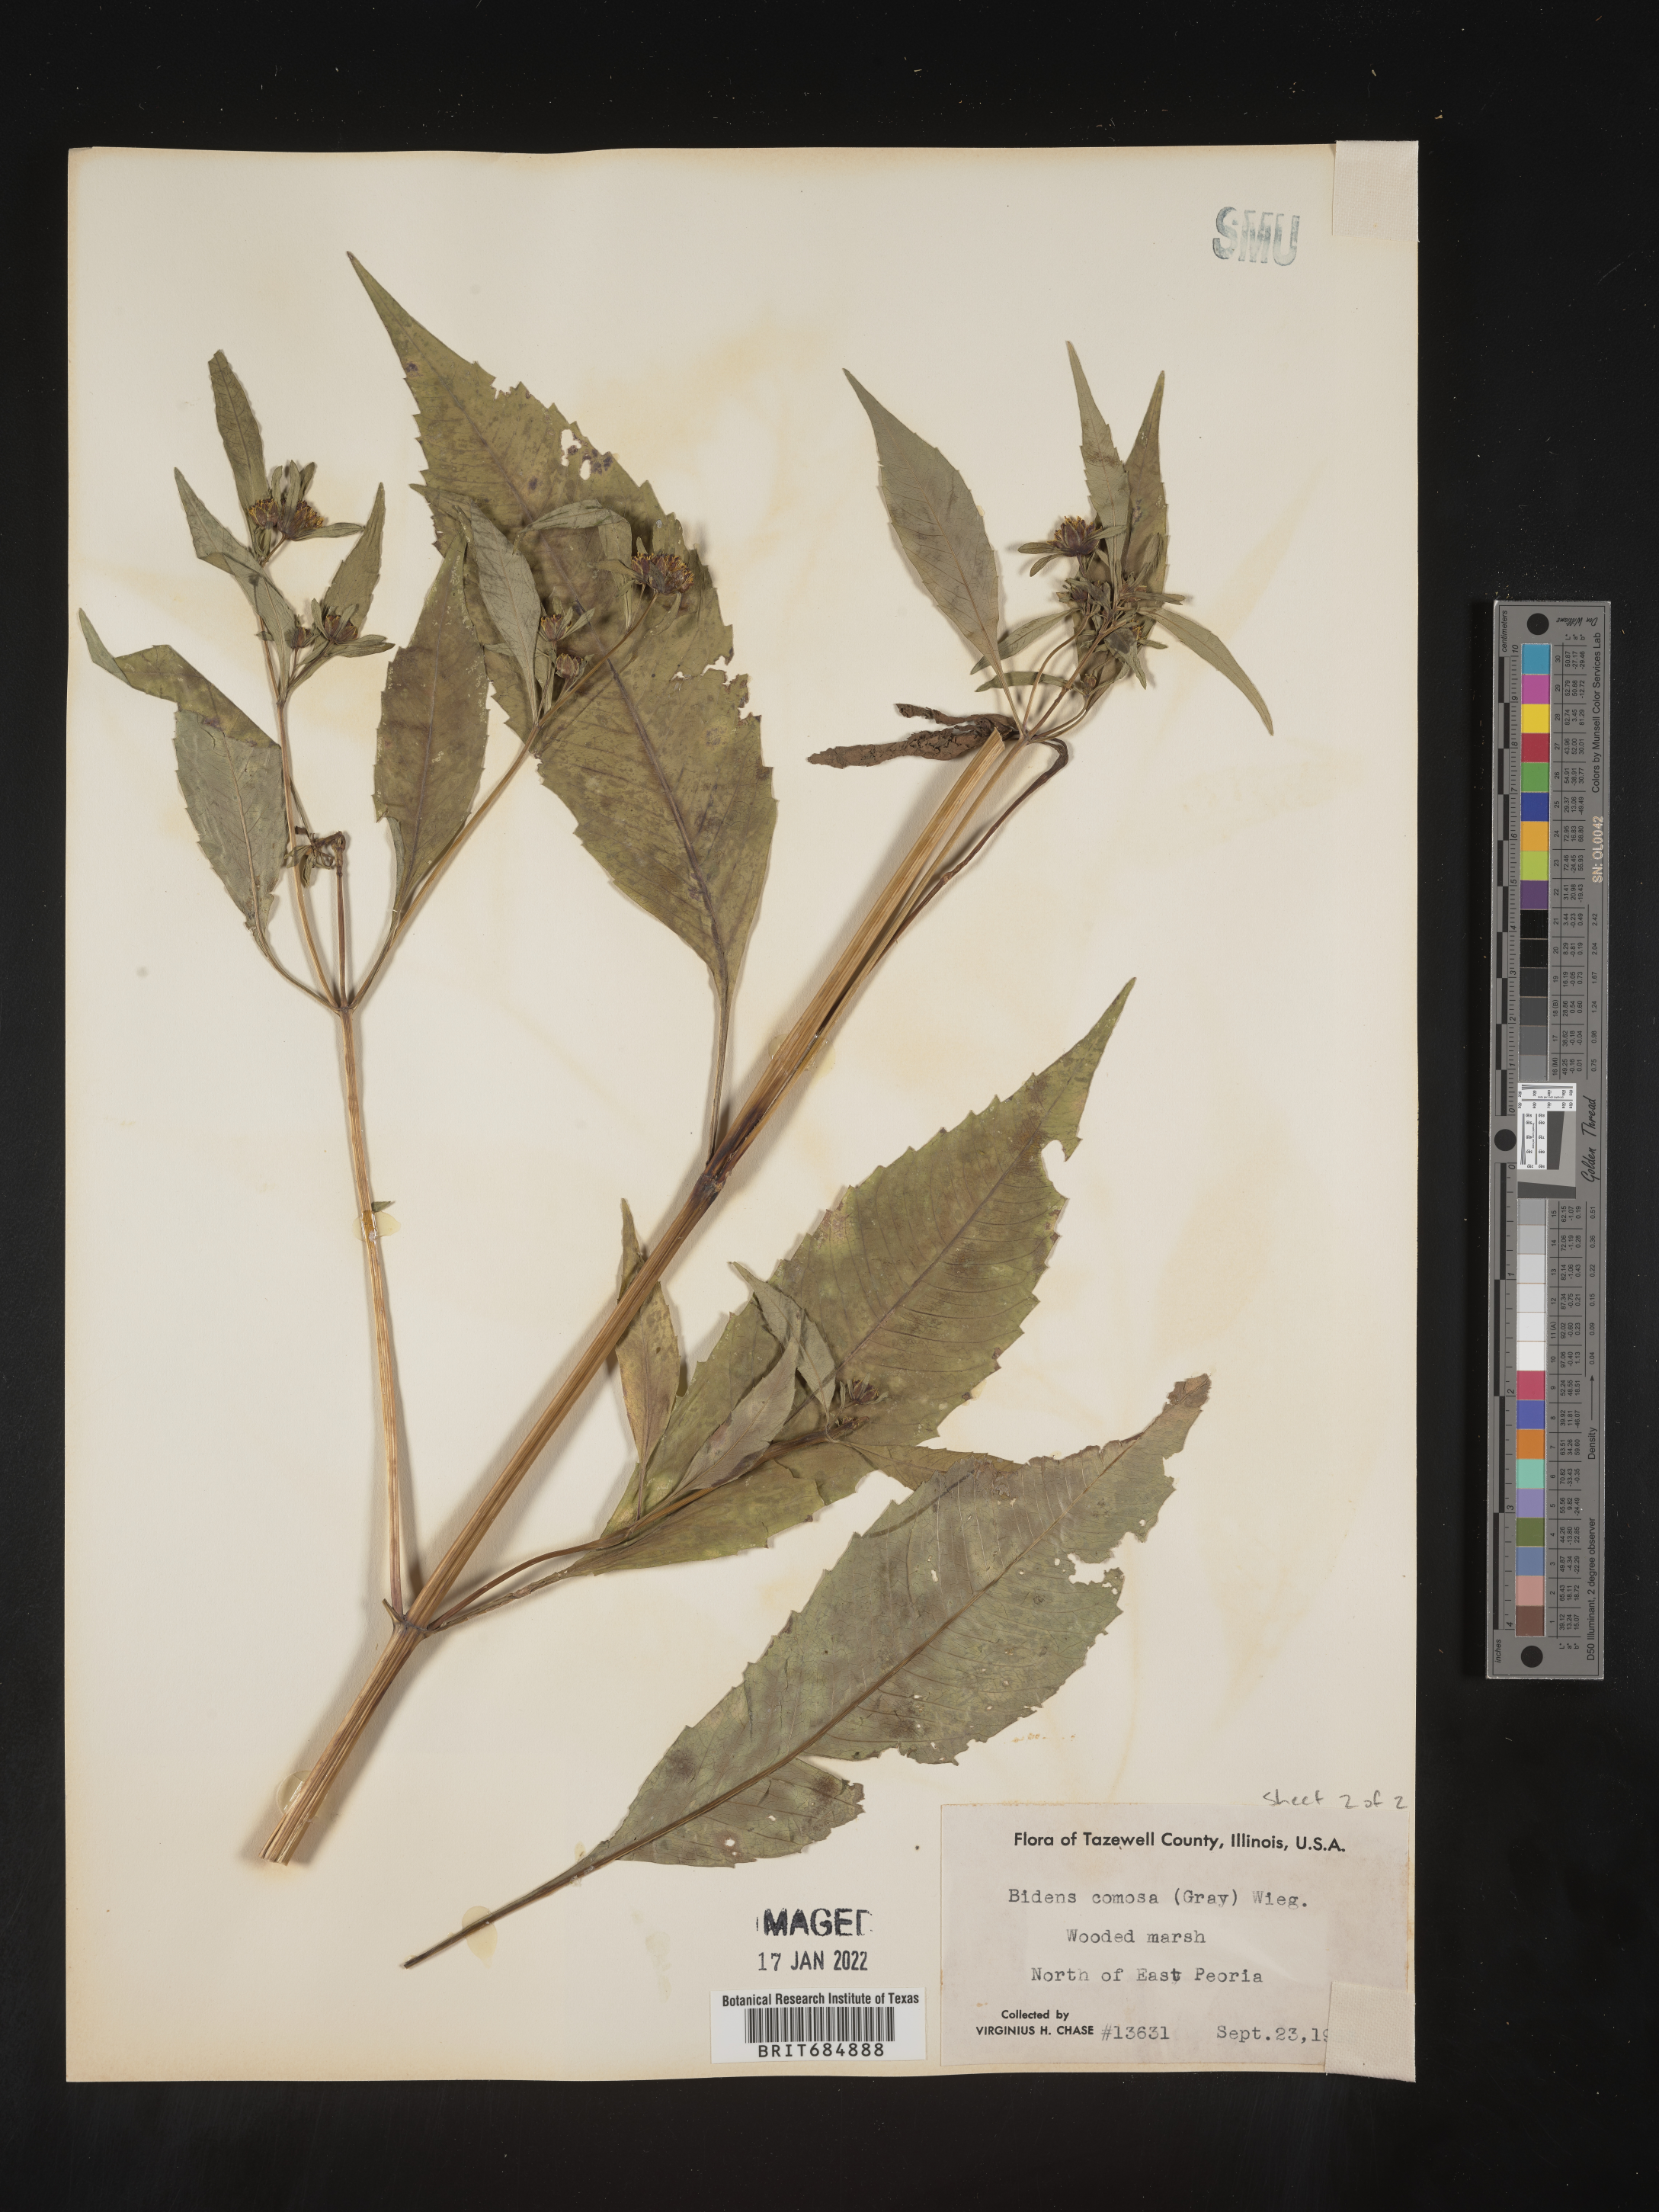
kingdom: Plantae
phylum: Tracheophyta
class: Magnoliopsida
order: Asterales
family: Asteraceae
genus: Bidens
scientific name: Bidens tripartita
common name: Trifid bur-marigold
